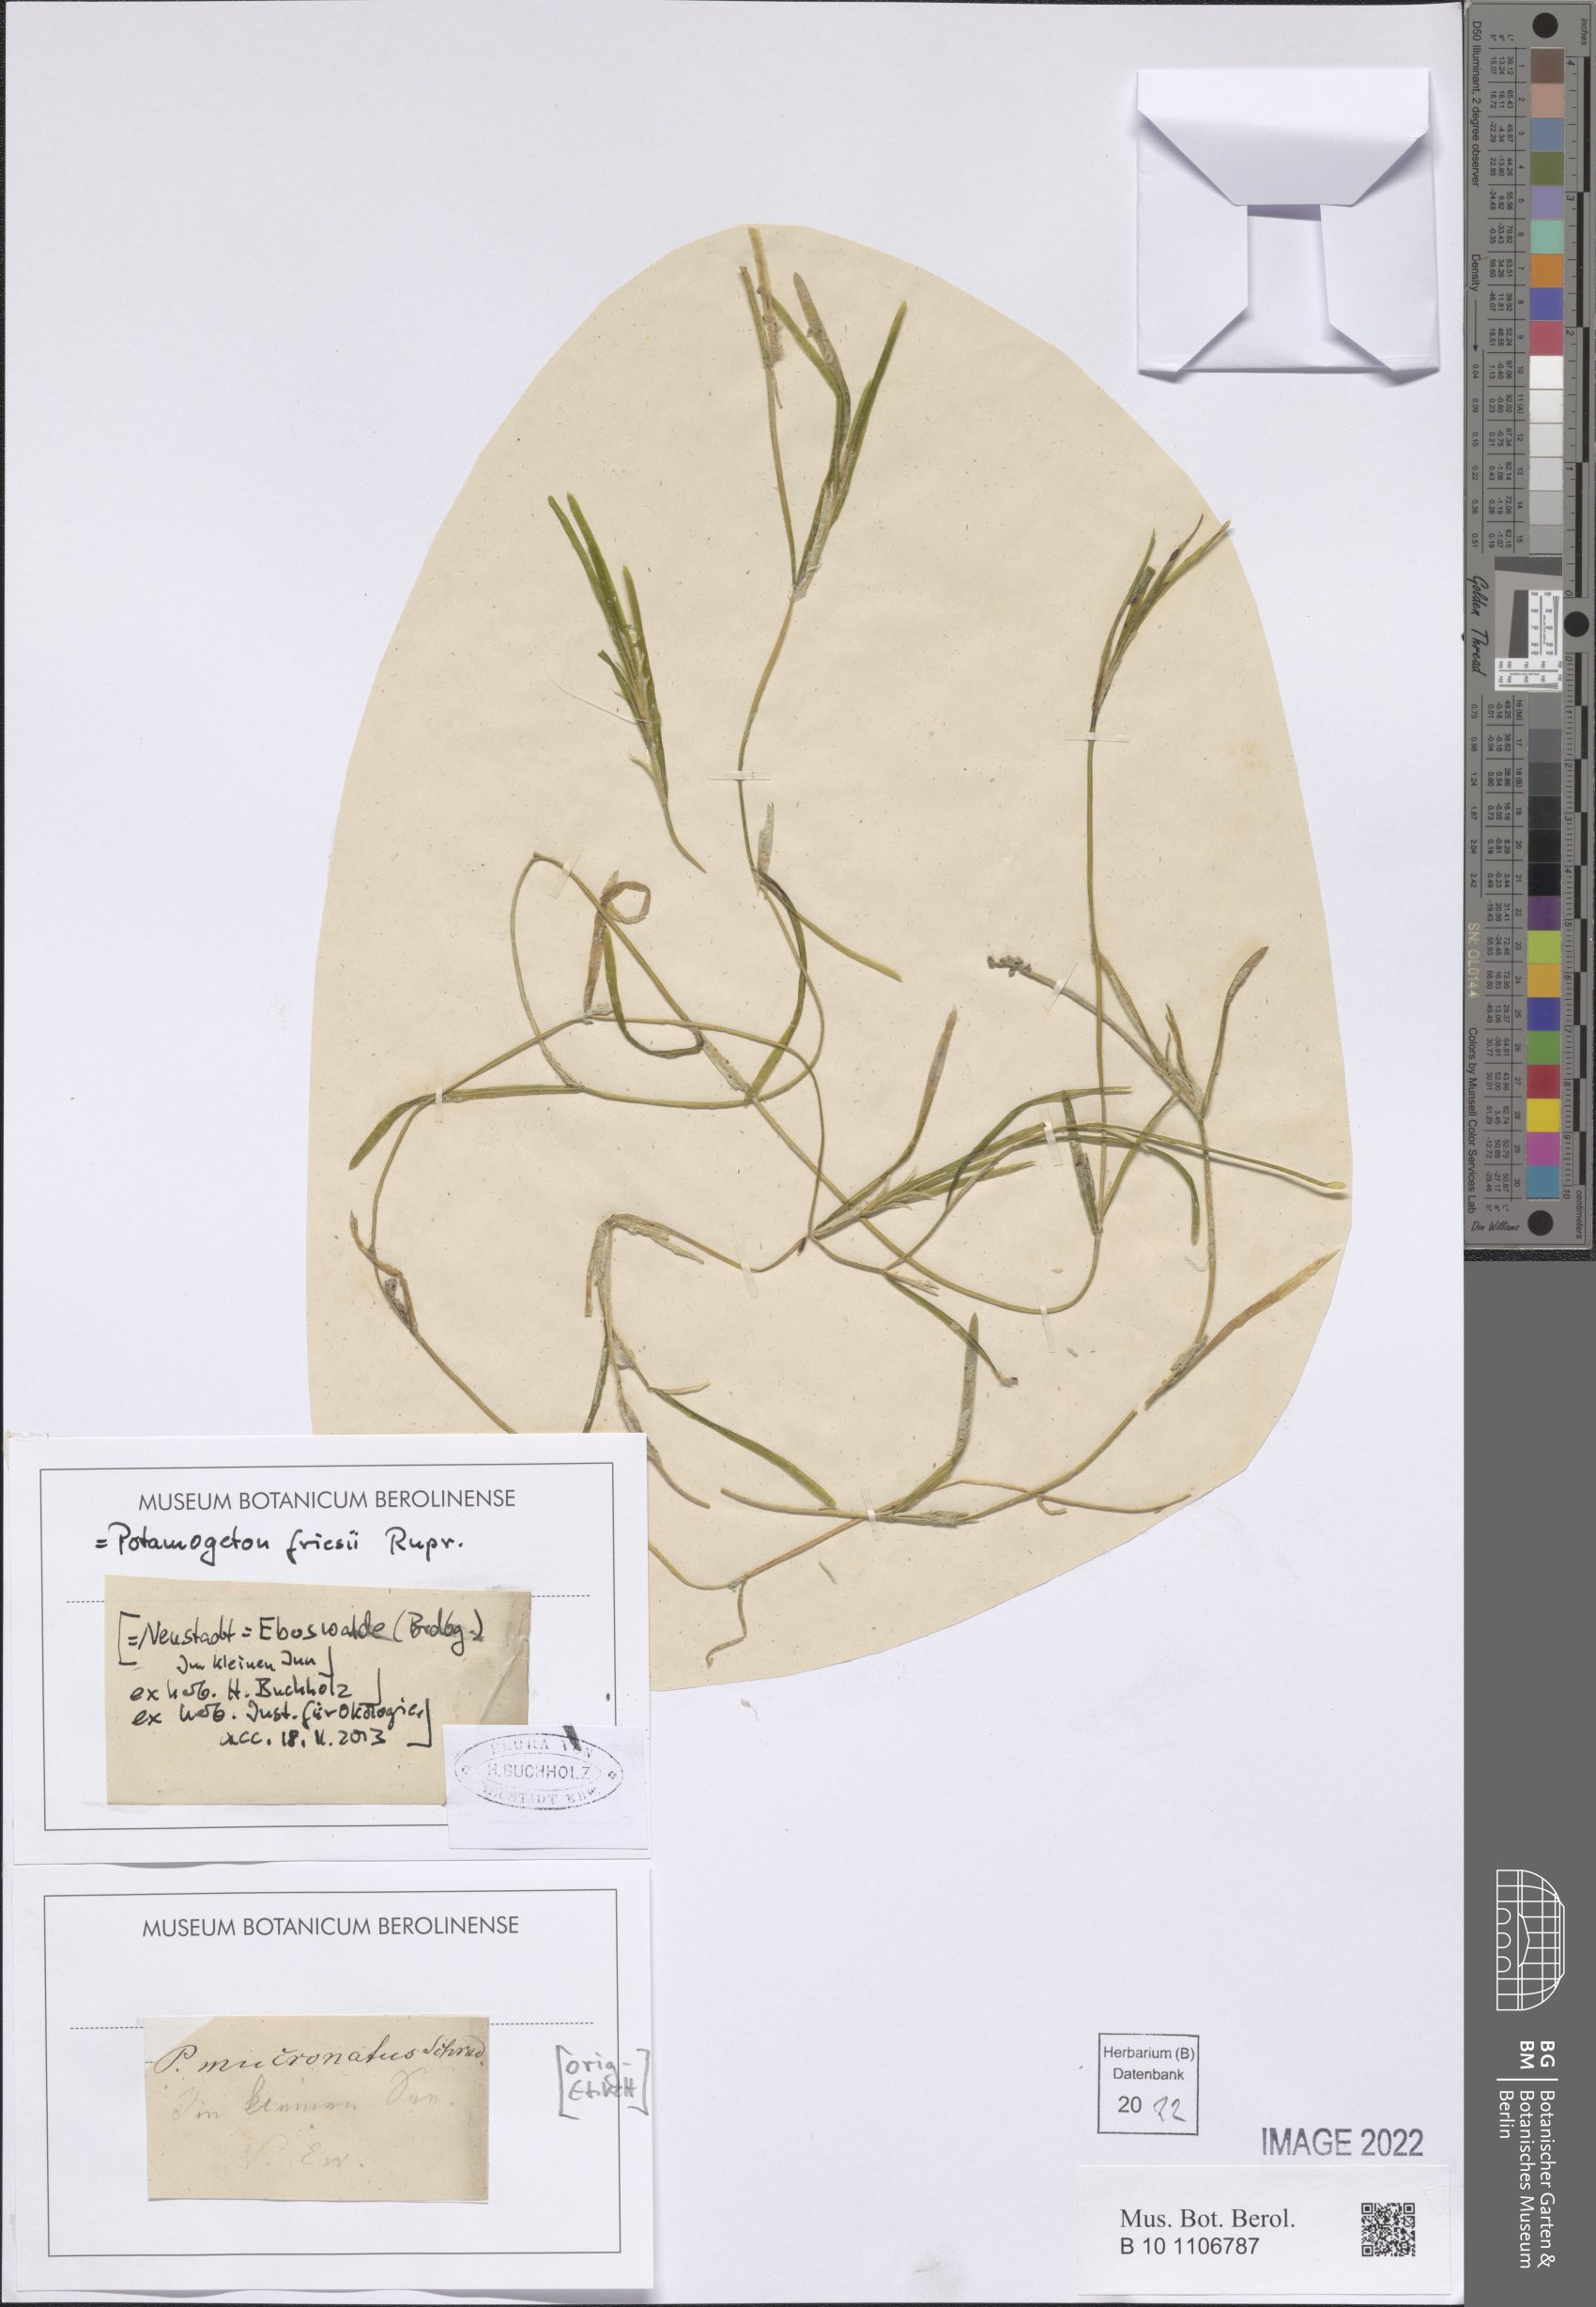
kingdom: Plantae
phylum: Tracheophyta
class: Liliopsida
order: Alismatales
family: Potamogetonaceae
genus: Potamogeton
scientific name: Potamogeton friesii
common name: Flat-stalked pondweed
